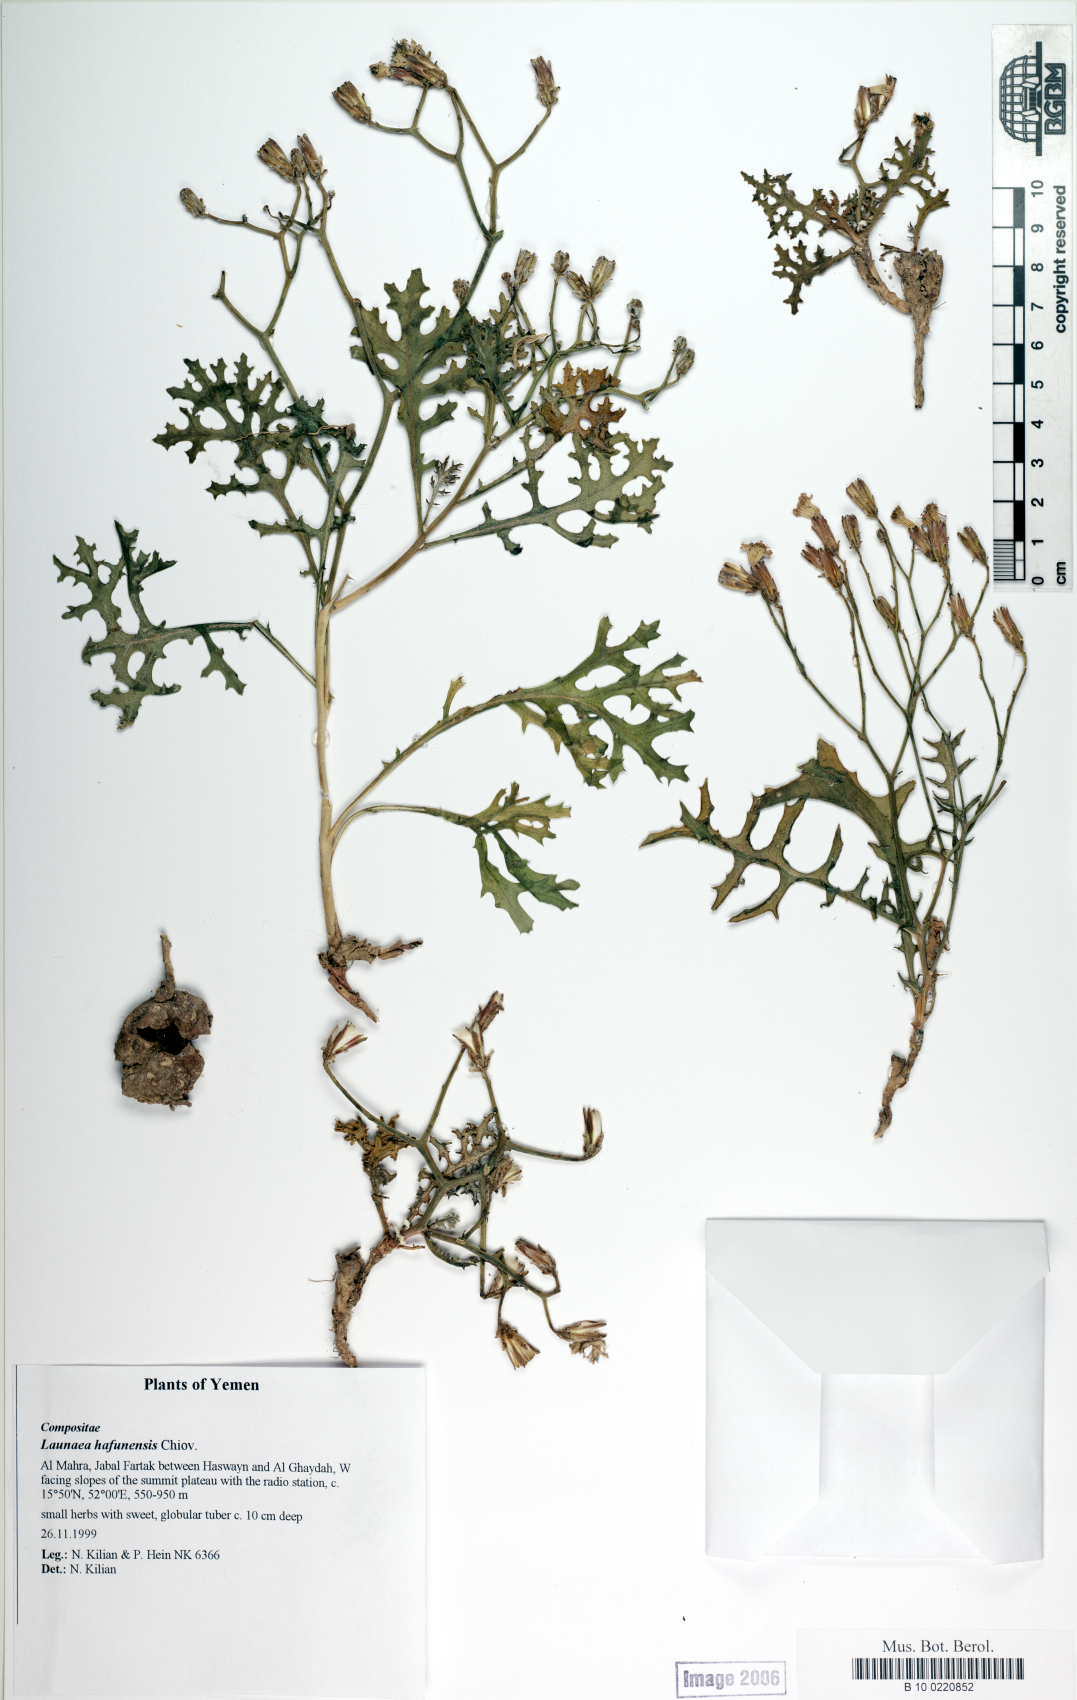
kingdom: Plantae
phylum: Tracheophyta
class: Magnoliopsida
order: Asterales
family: Asteraceae
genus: Launaea
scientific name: Launaea hafunensis
